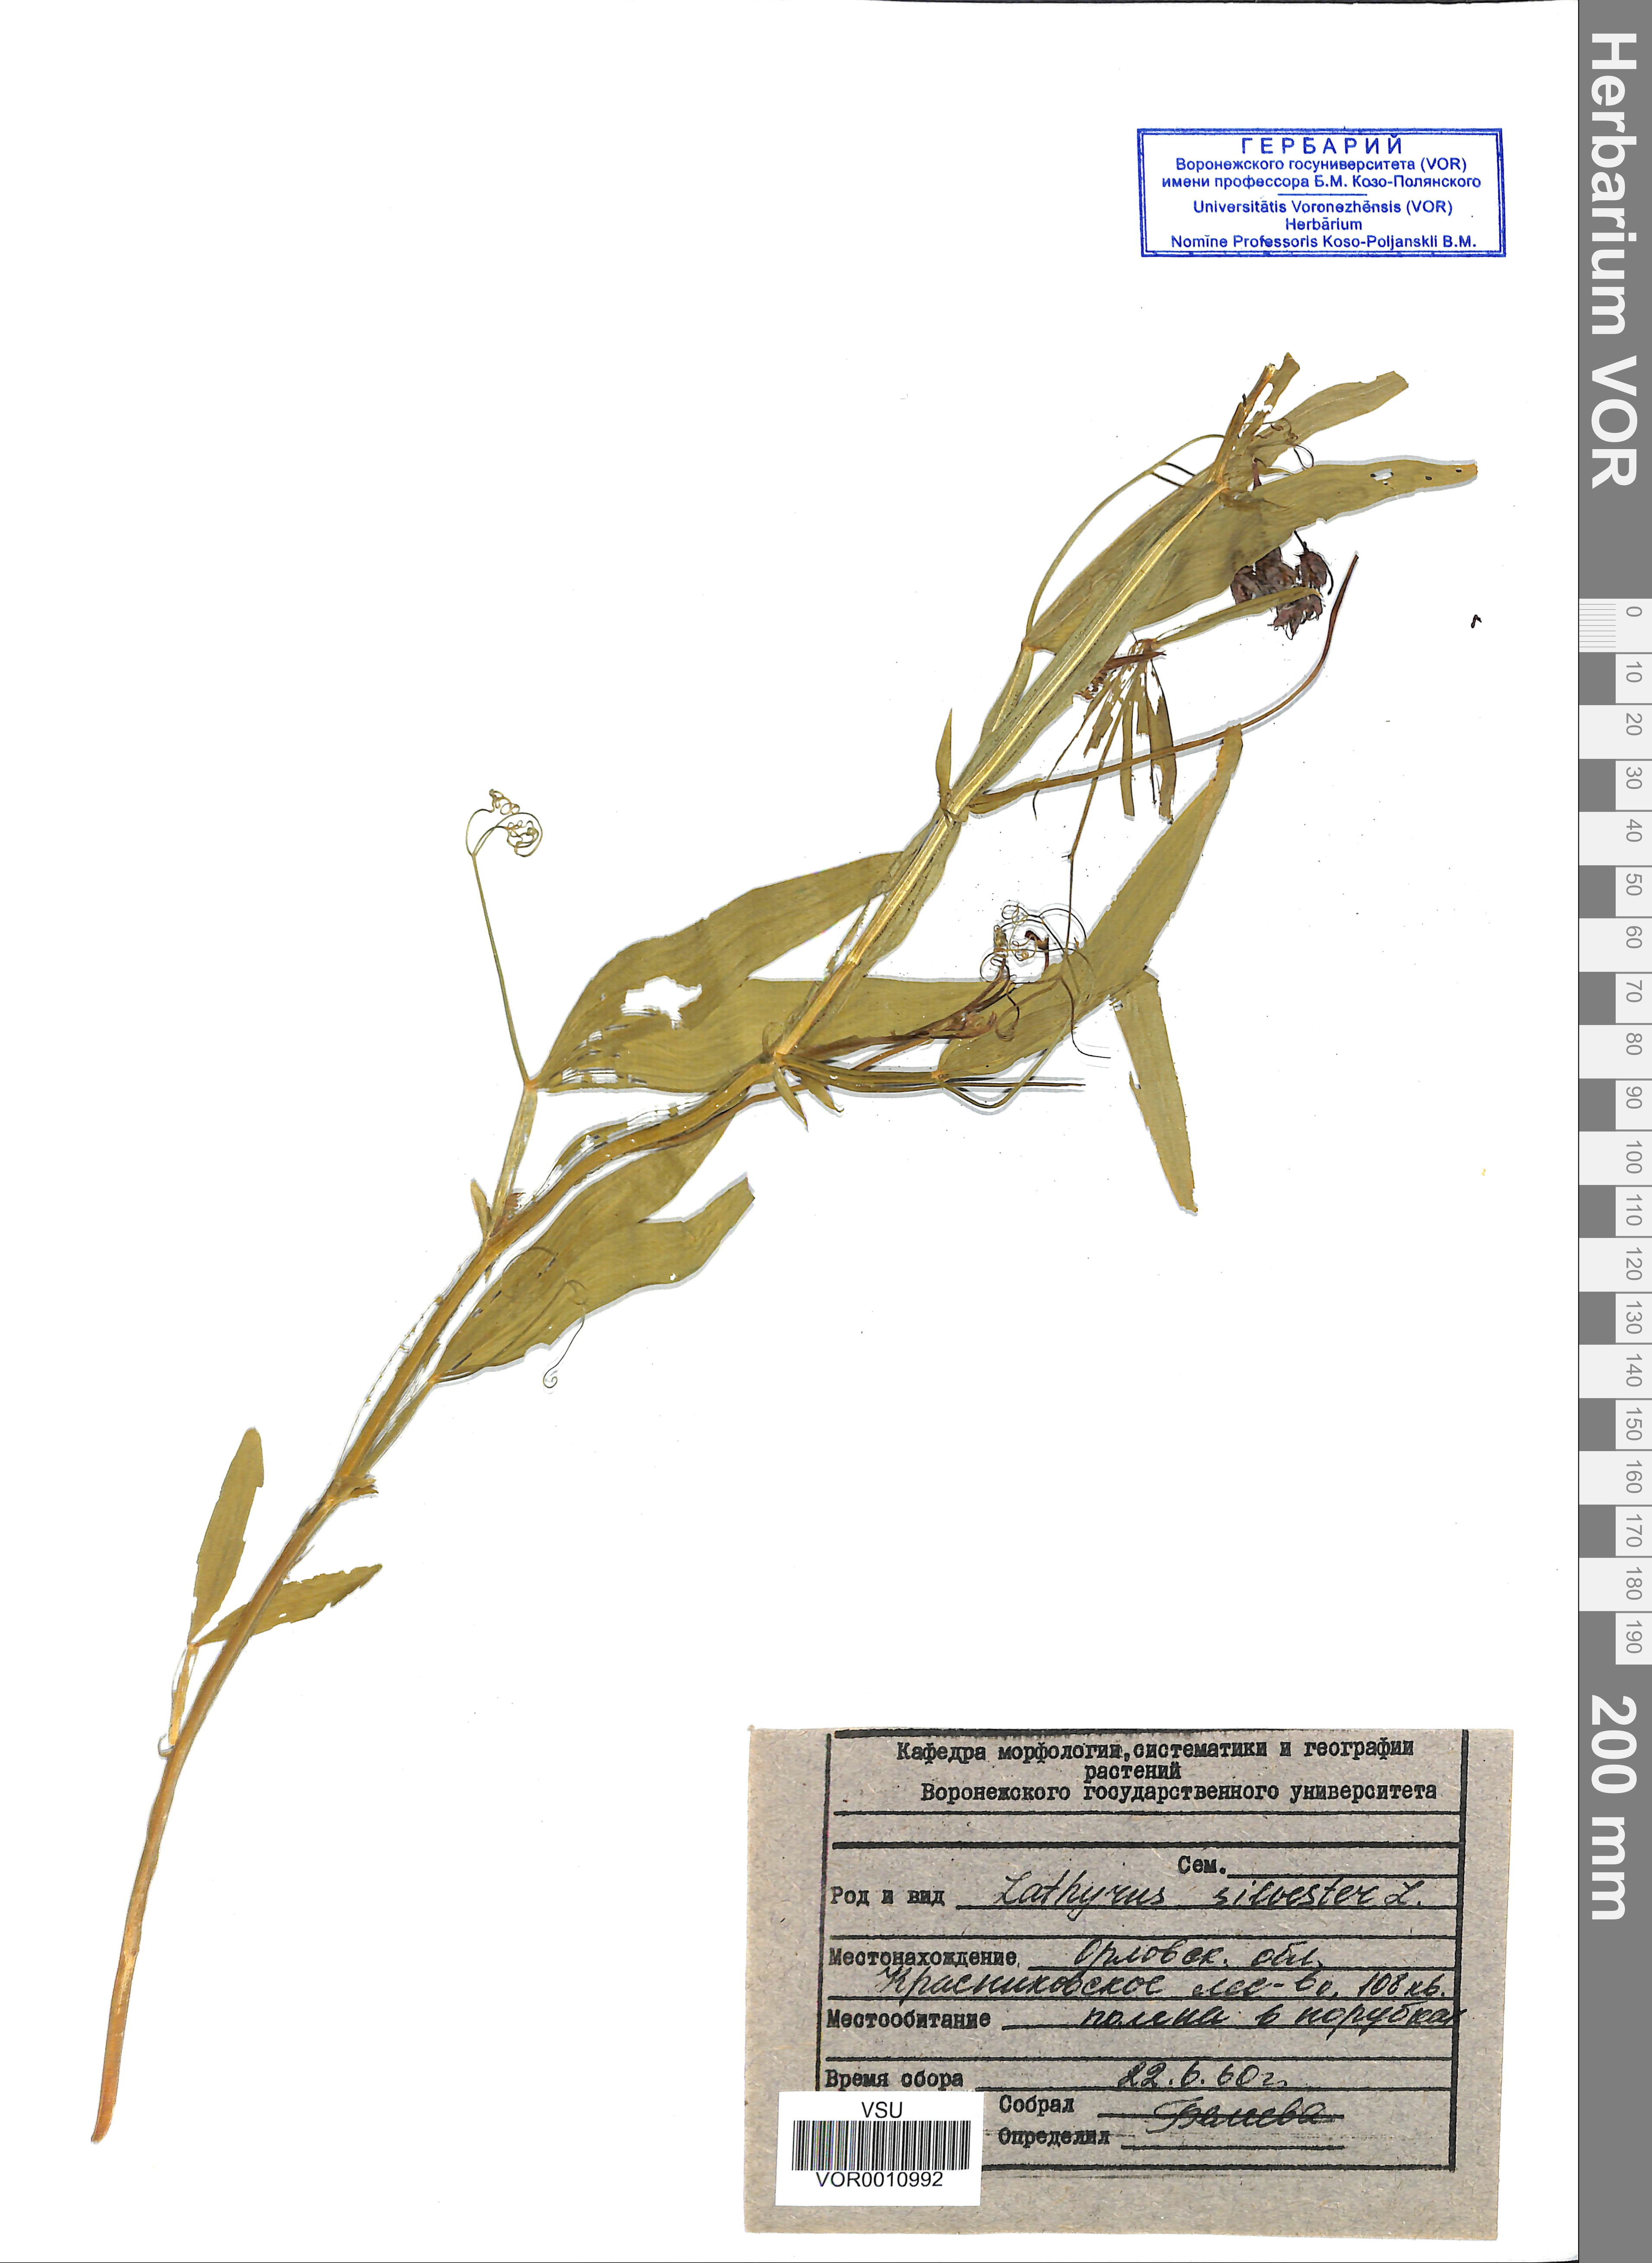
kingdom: Plantae
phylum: Tracheophyta
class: Magnoliopsida
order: Fabales
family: Fabaceae
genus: Lathyrus
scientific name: Lathyrus sylvestris
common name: Flat pea
